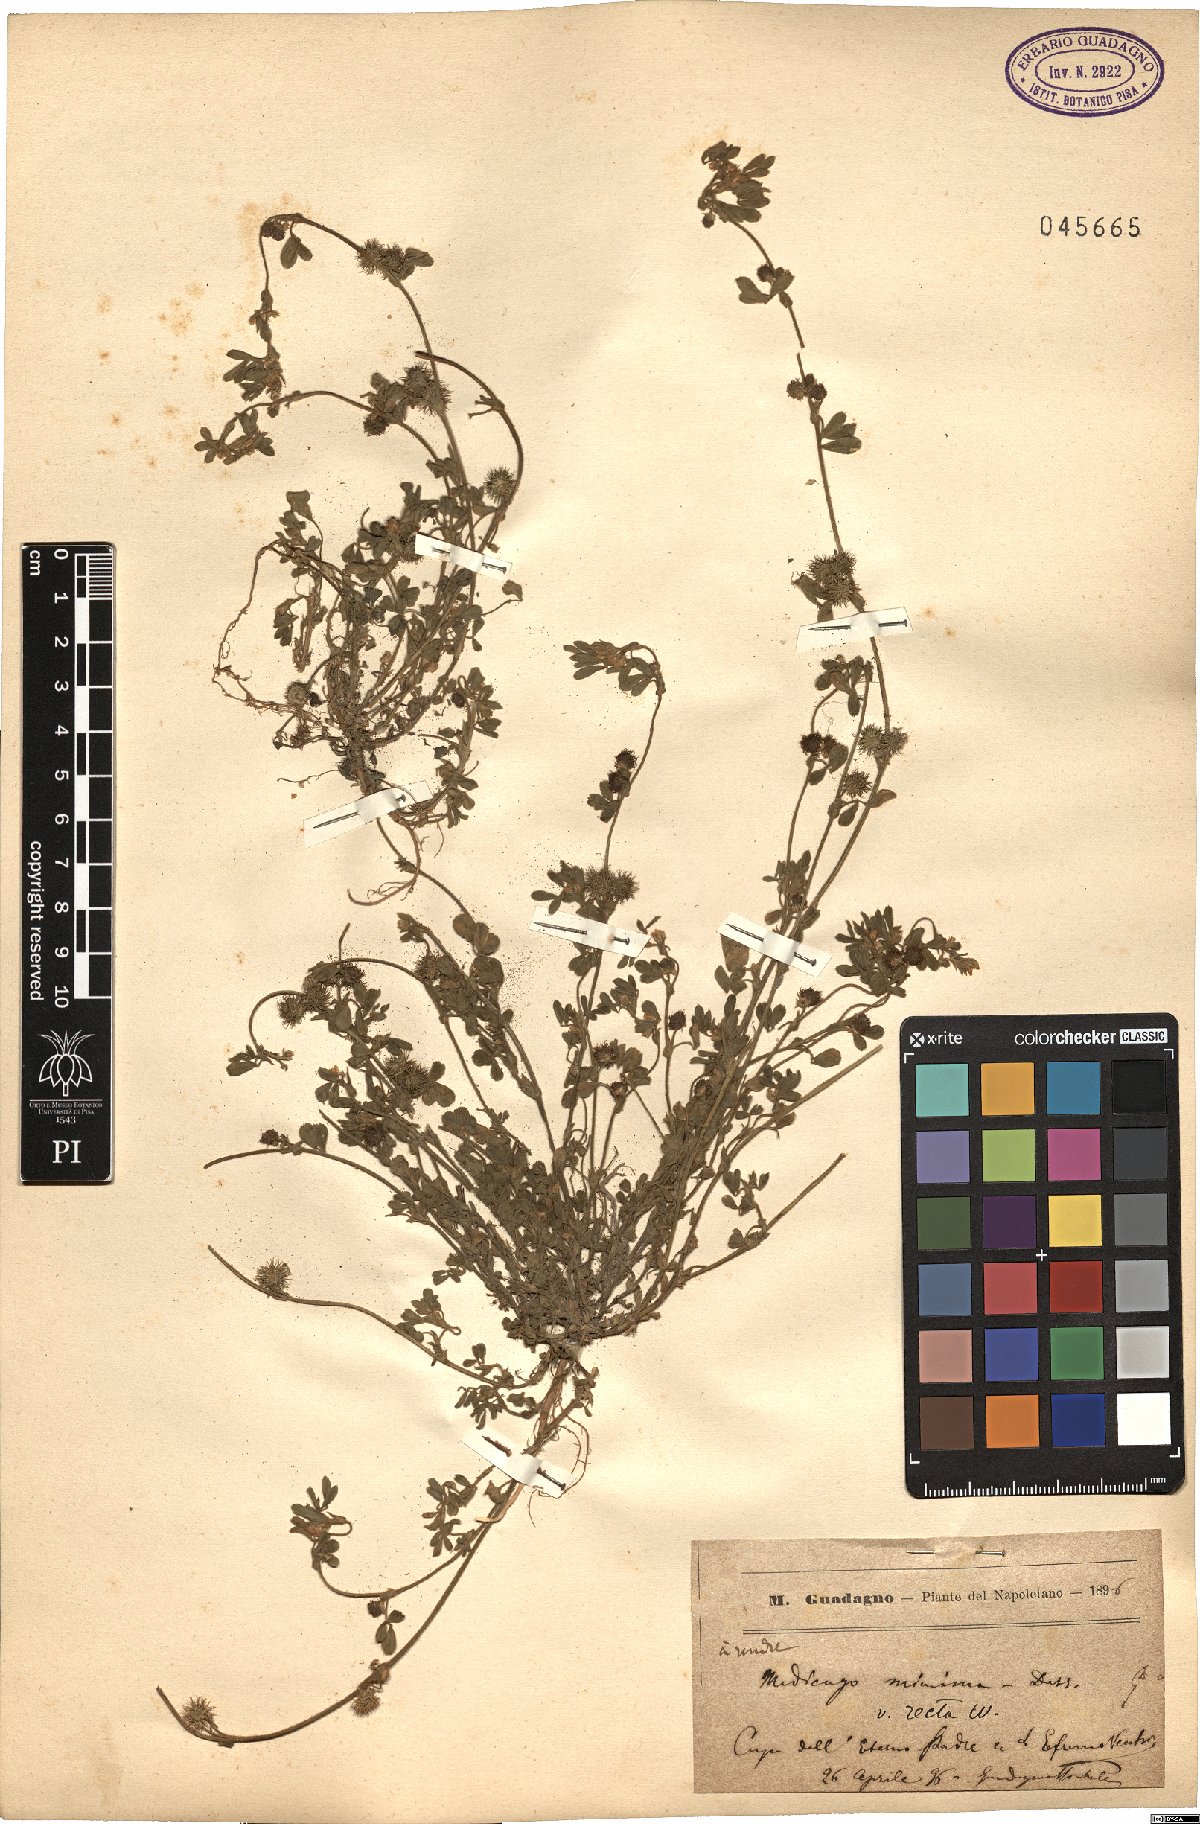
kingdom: Plantae
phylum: Tracheophyta
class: Magnoliopsida
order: Fabales
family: Fabaceae
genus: Medicago
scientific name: Medicago minima
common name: Little bur-clover
